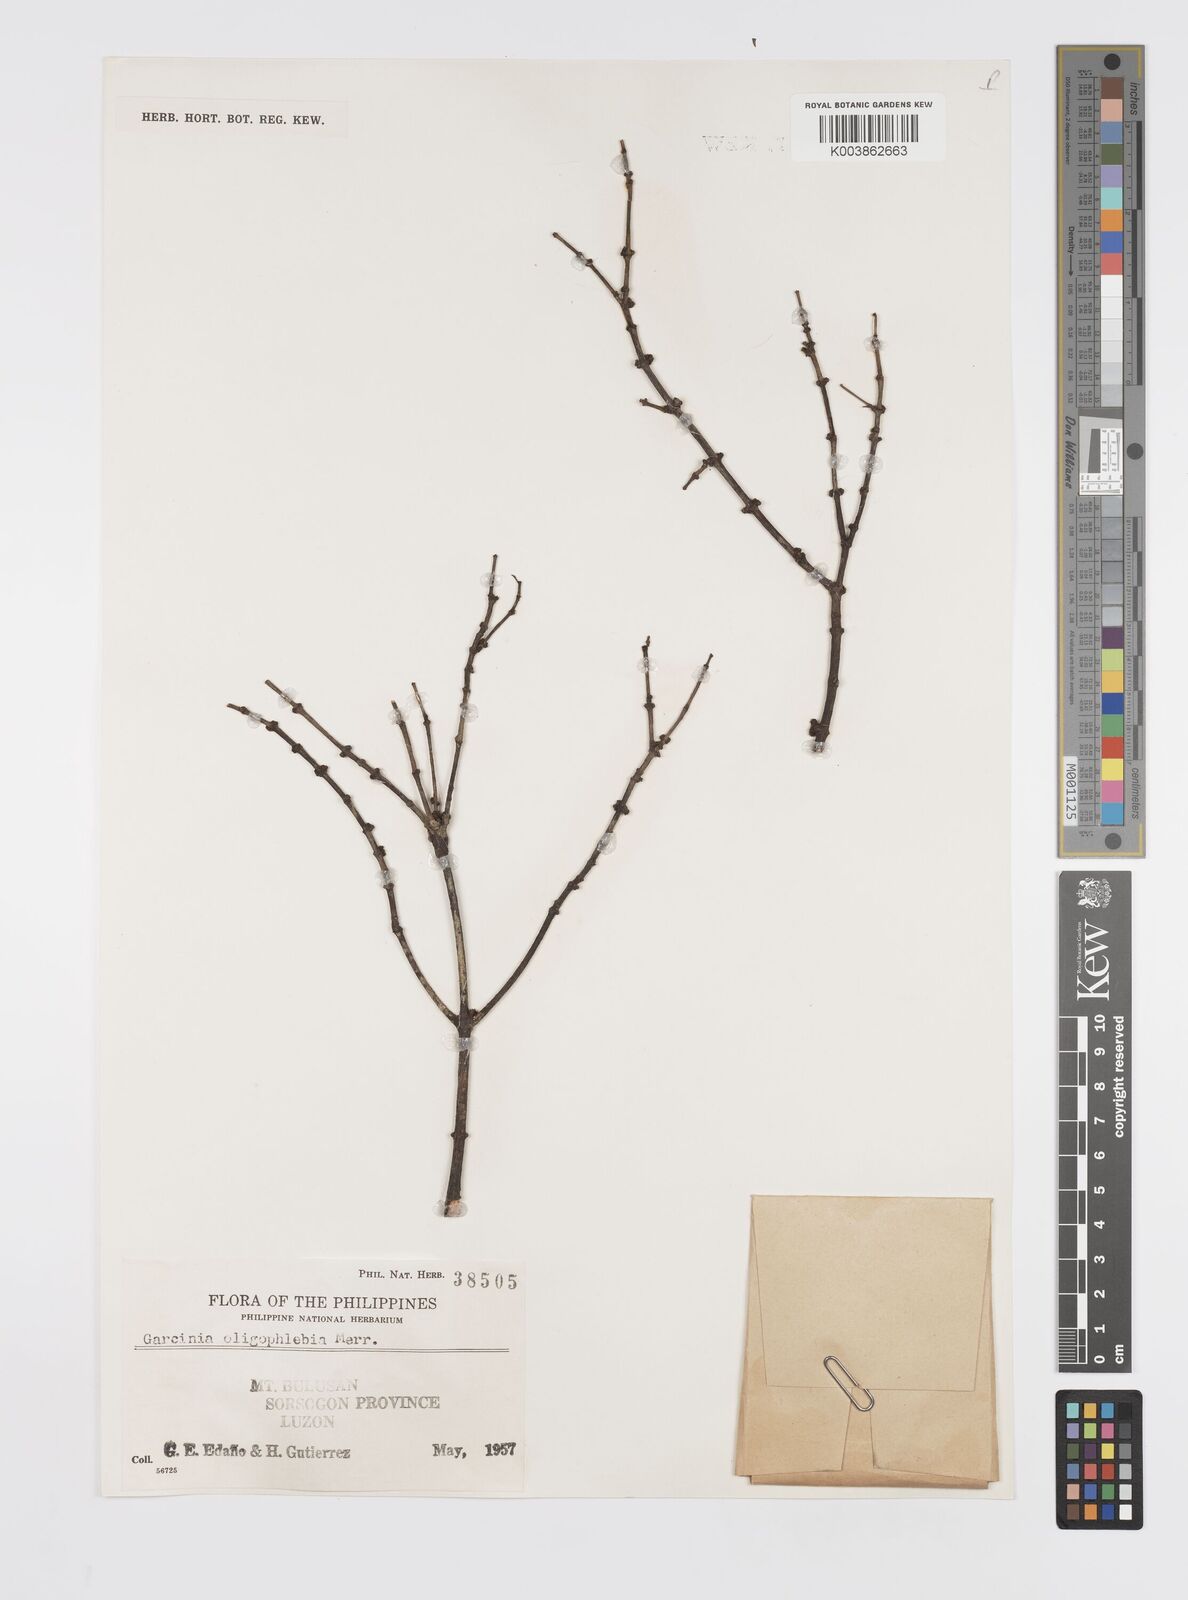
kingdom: Plantae
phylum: Tracheophyta
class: Magnoliopsida
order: Malpighiales
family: Clusiaceae
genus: Garcinia
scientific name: Garcinia rubra
